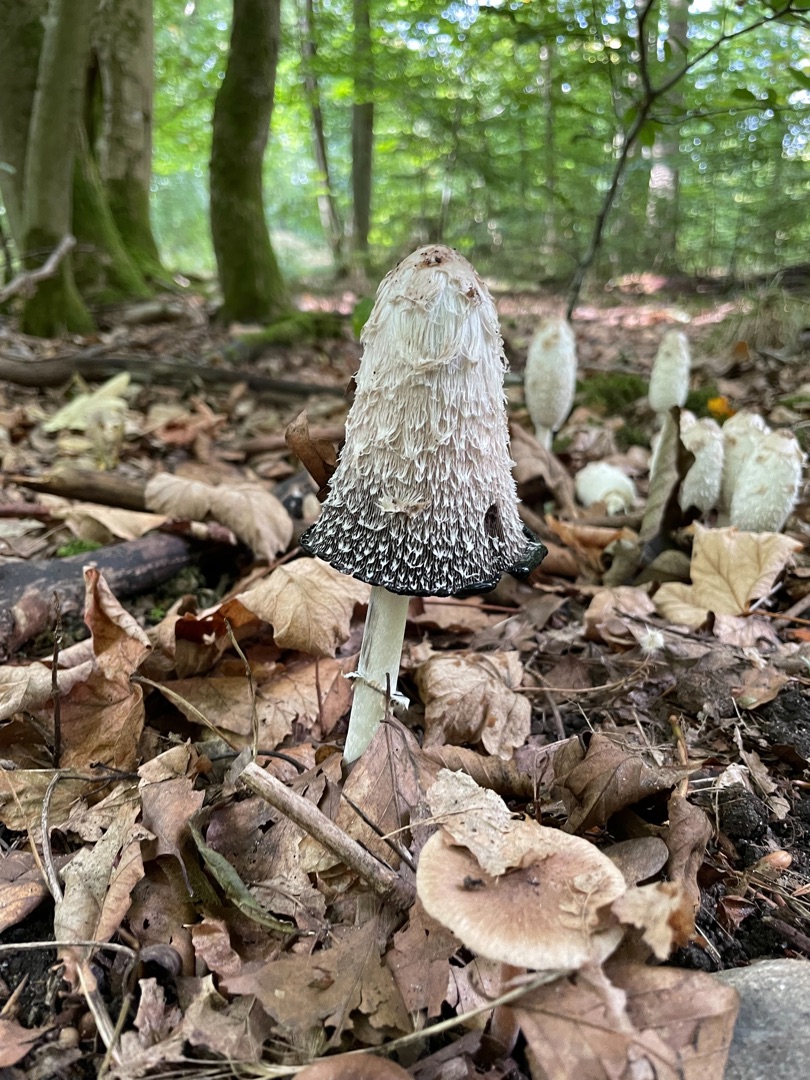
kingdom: Fungi
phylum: Basidiomycota
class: Agaricomycetes
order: Agaricales
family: Agaricaceae
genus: Coprinus
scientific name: Coprinus comatus
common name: Stor parykhat
